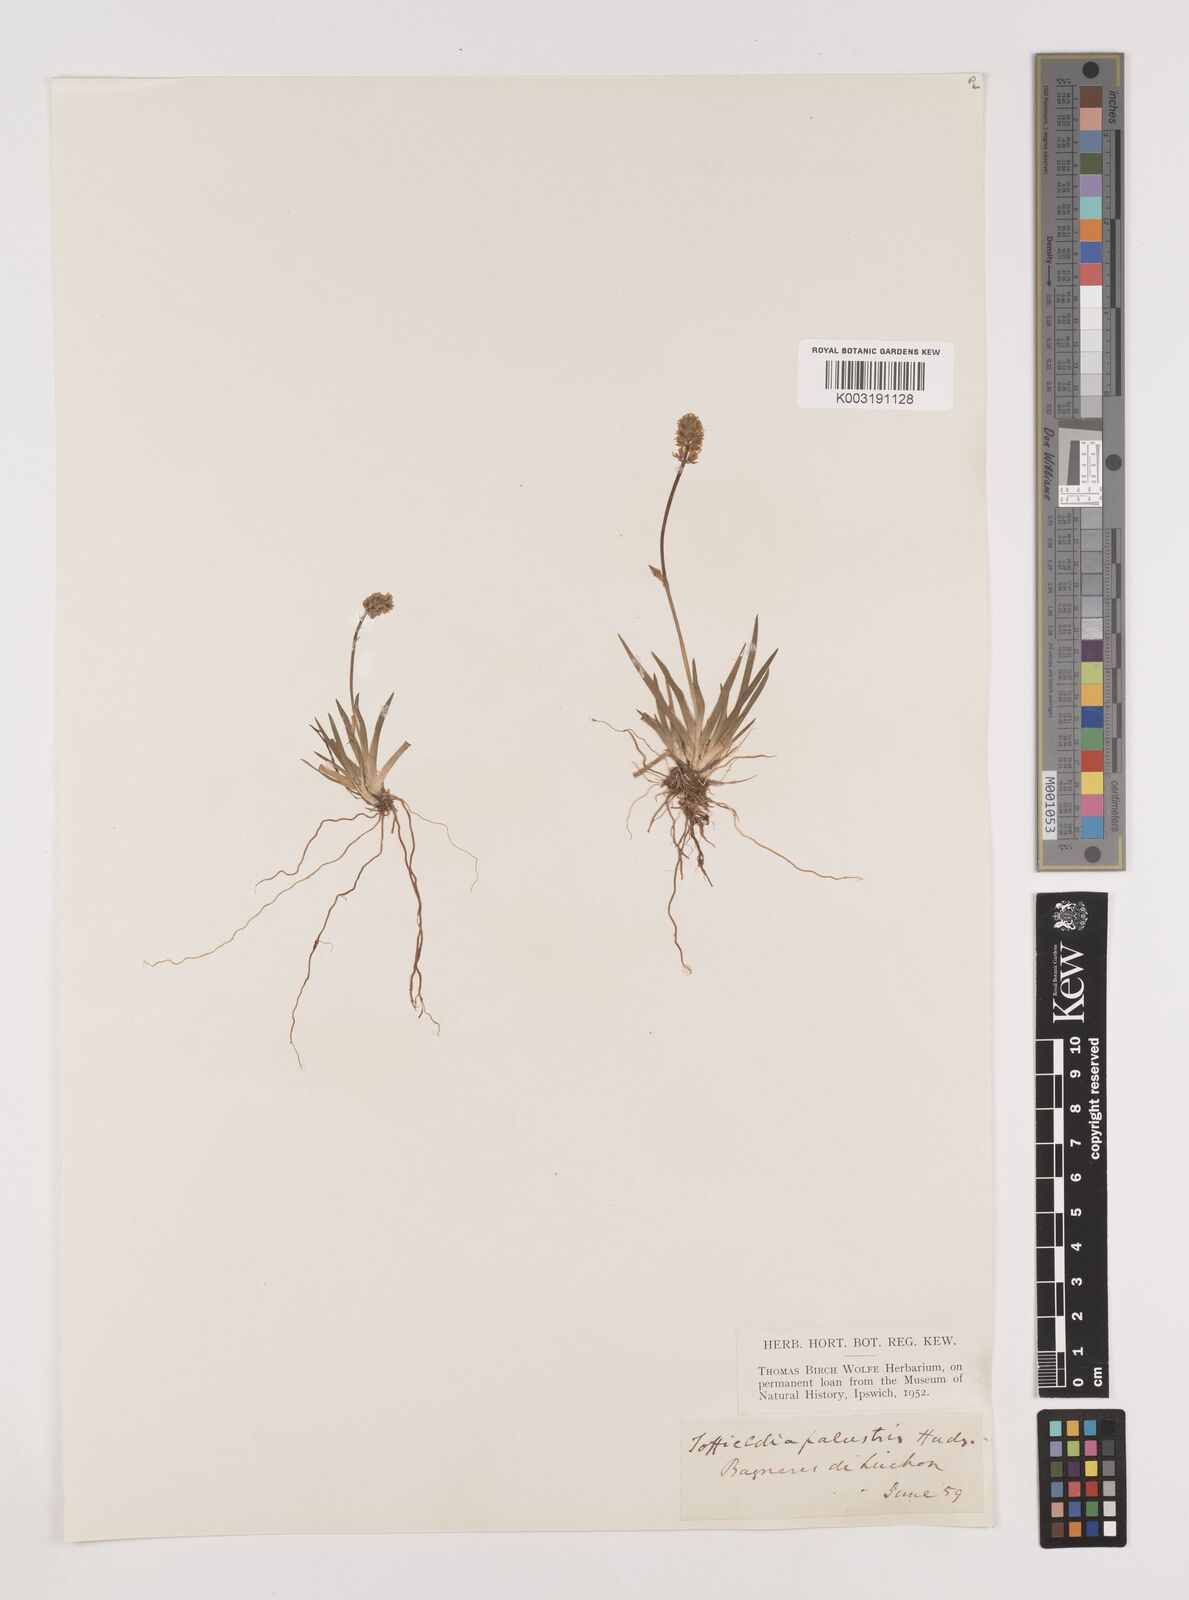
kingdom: Plantae
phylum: Tracheophyta
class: Liliopsida
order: Alismatales
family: Tofieldiaceae
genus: Tofieldia
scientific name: Tofieldia pusilla
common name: Scottish false asphodel
